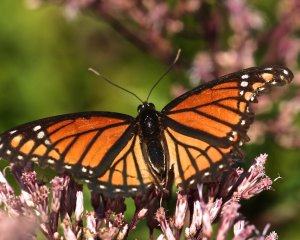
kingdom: Animalia
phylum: Arthropoda
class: Insecta
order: Lepidoptera
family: Nymphalidae
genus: Limenitis
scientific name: Limenitis archippus
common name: Viceroy
